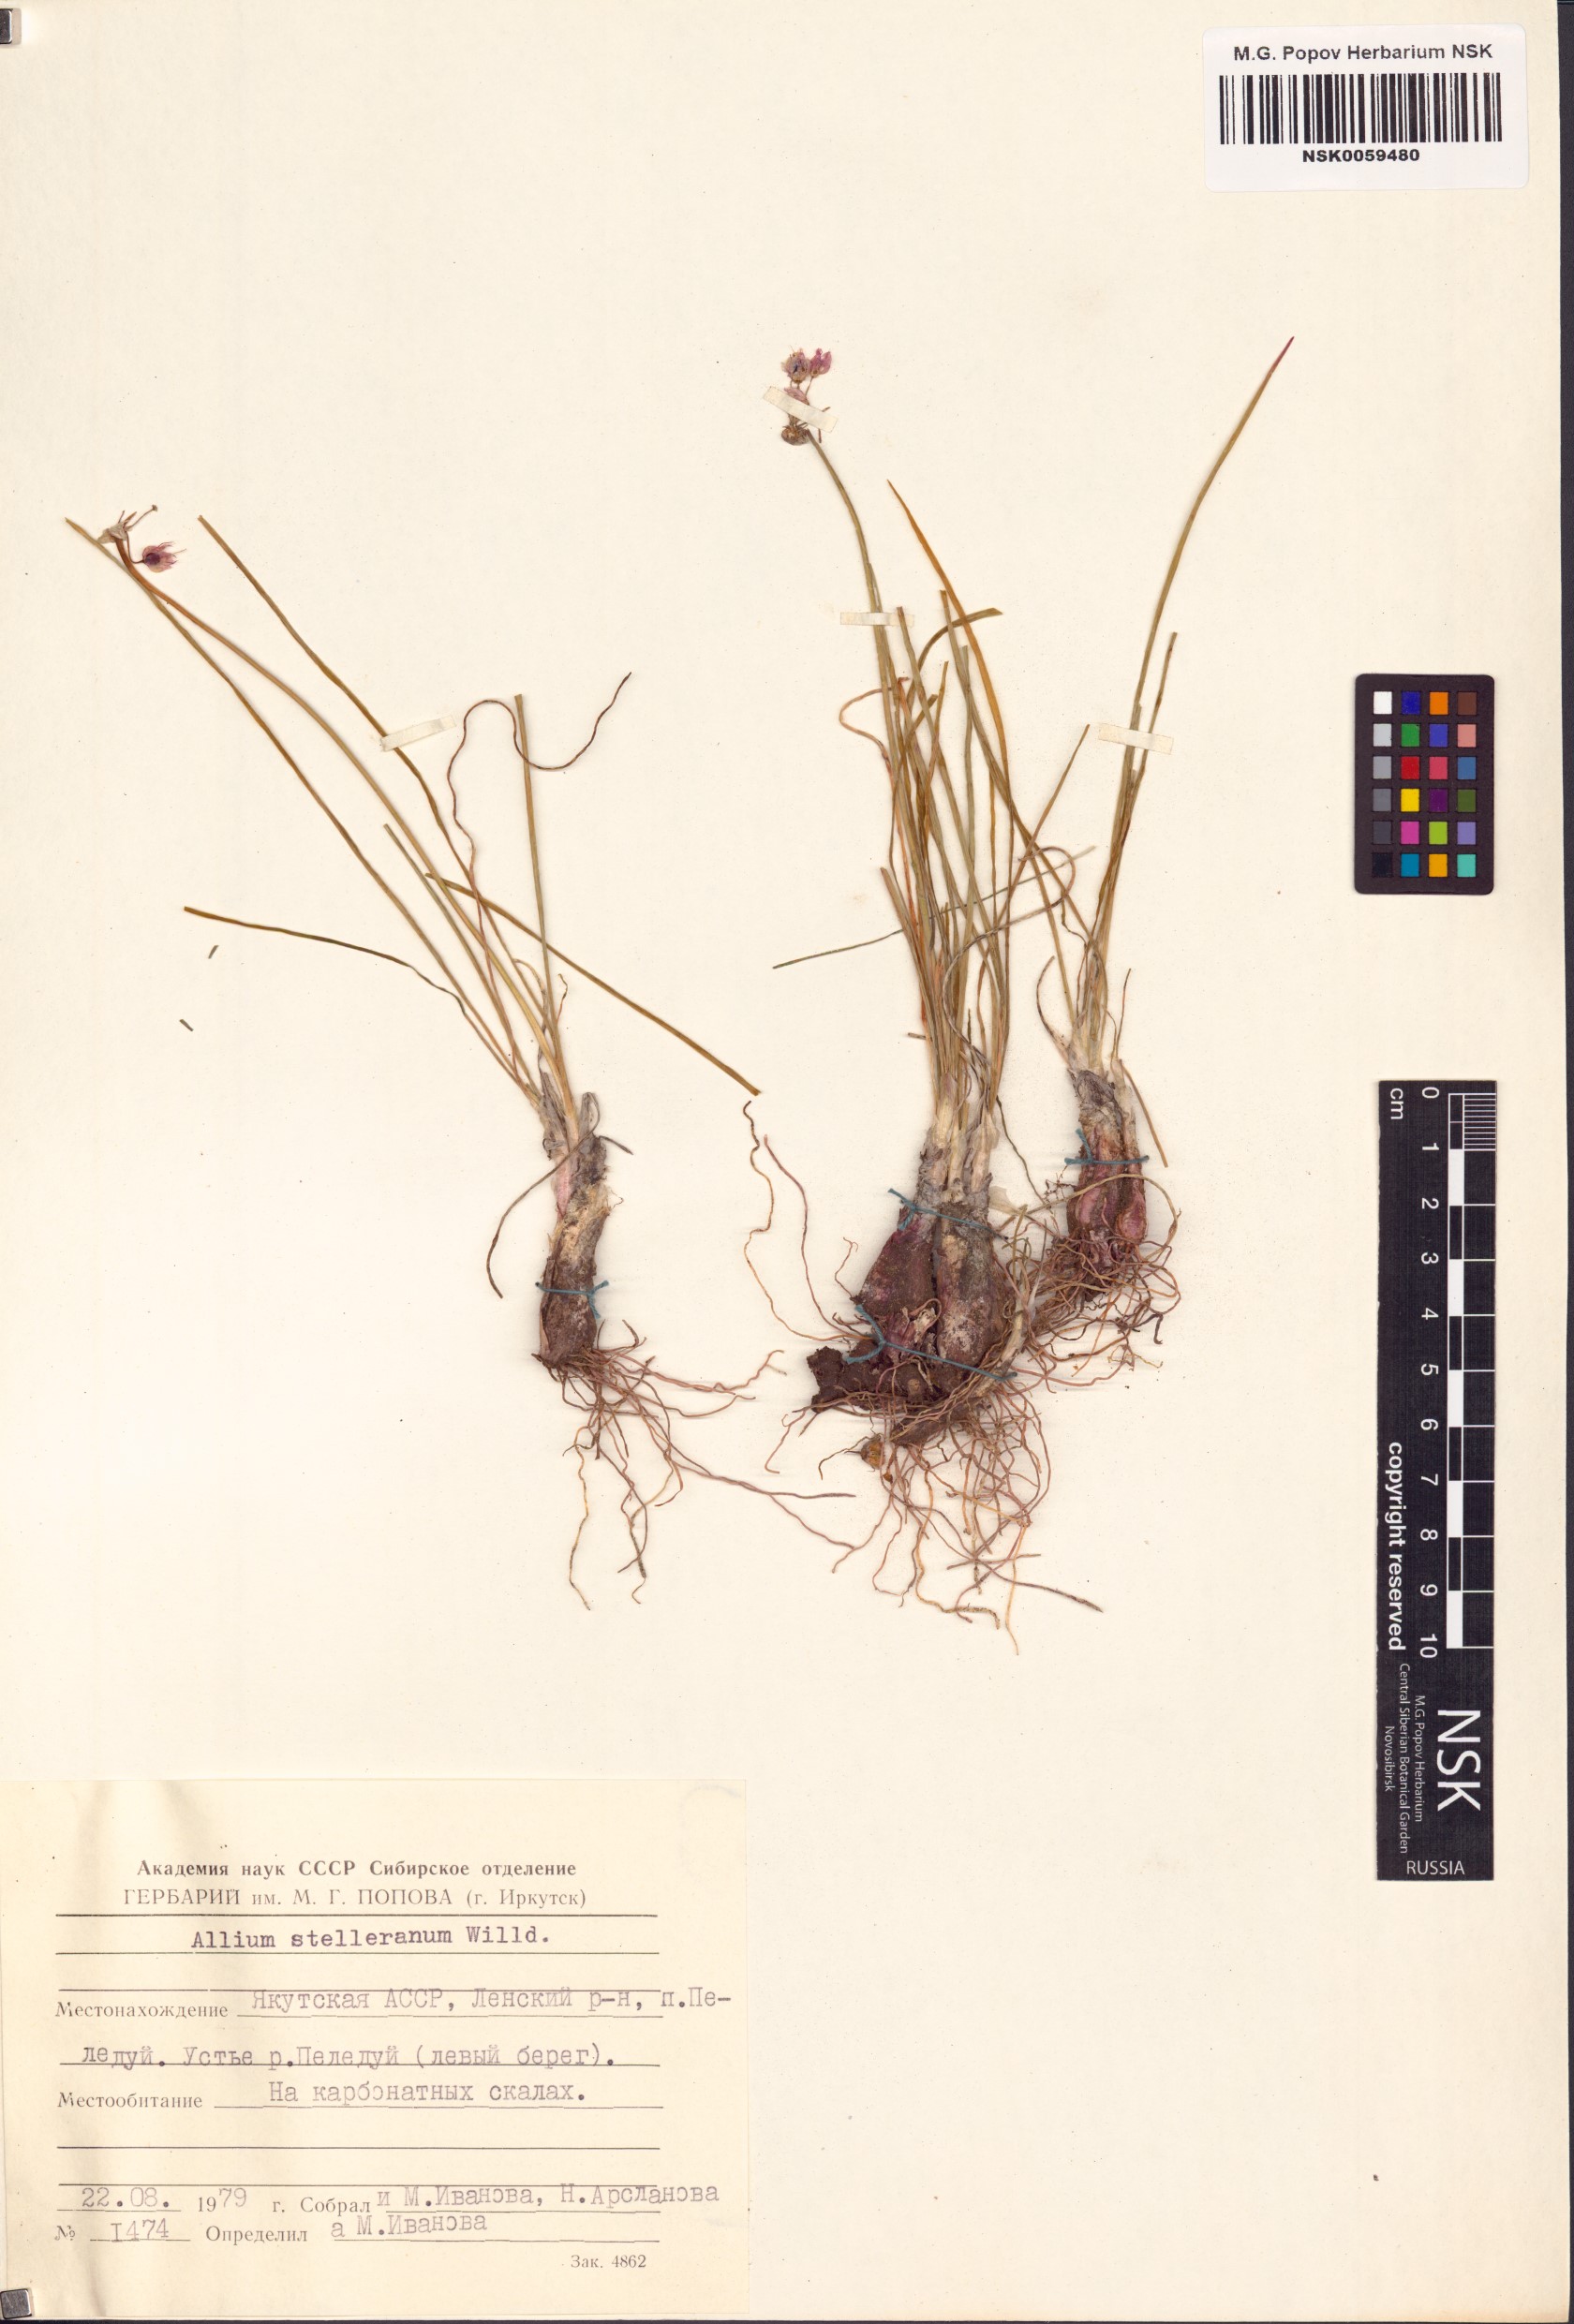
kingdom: Plantae
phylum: Tracheophyta
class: Liliopsida
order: Asparagales
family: Amaryllidaceae
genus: Allium
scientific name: Allium stellerianum
